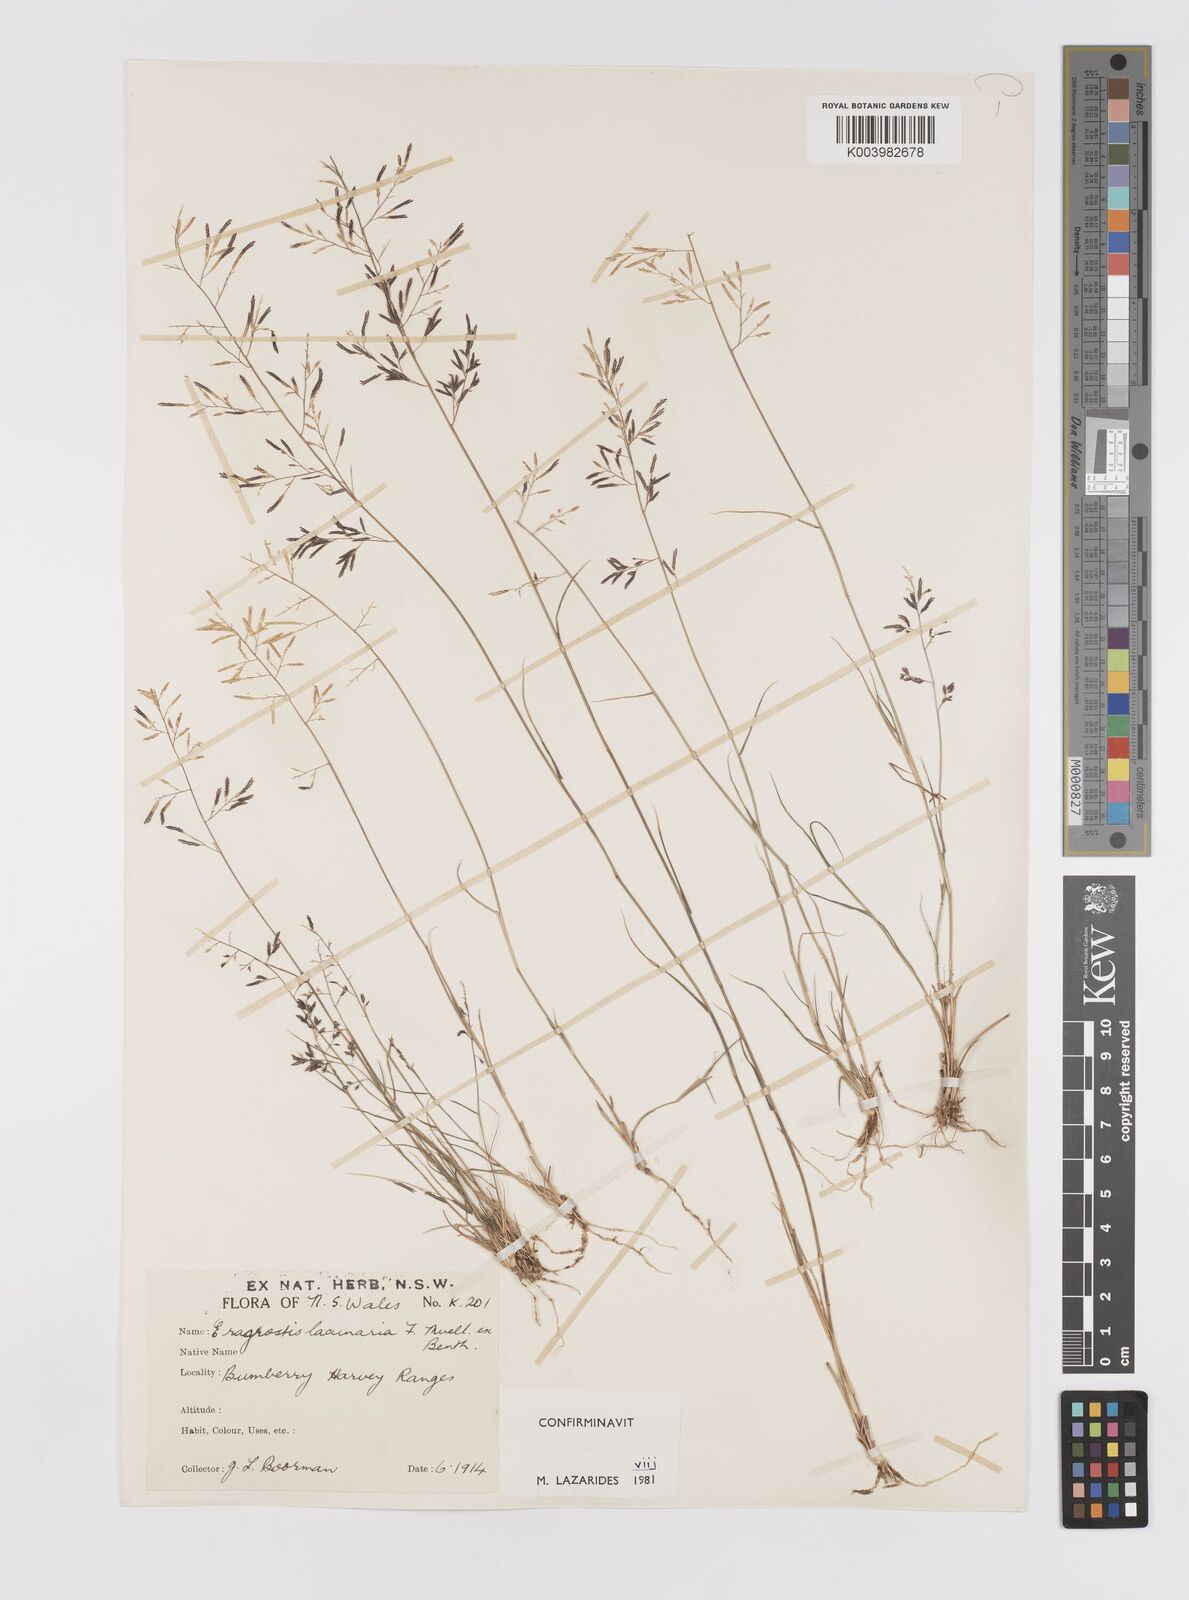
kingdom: Plantae
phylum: Tracheophyta
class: Liliopsida
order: Poales
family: Poaceae
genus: Eragrostis
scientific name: Eragrostis lacunaria
